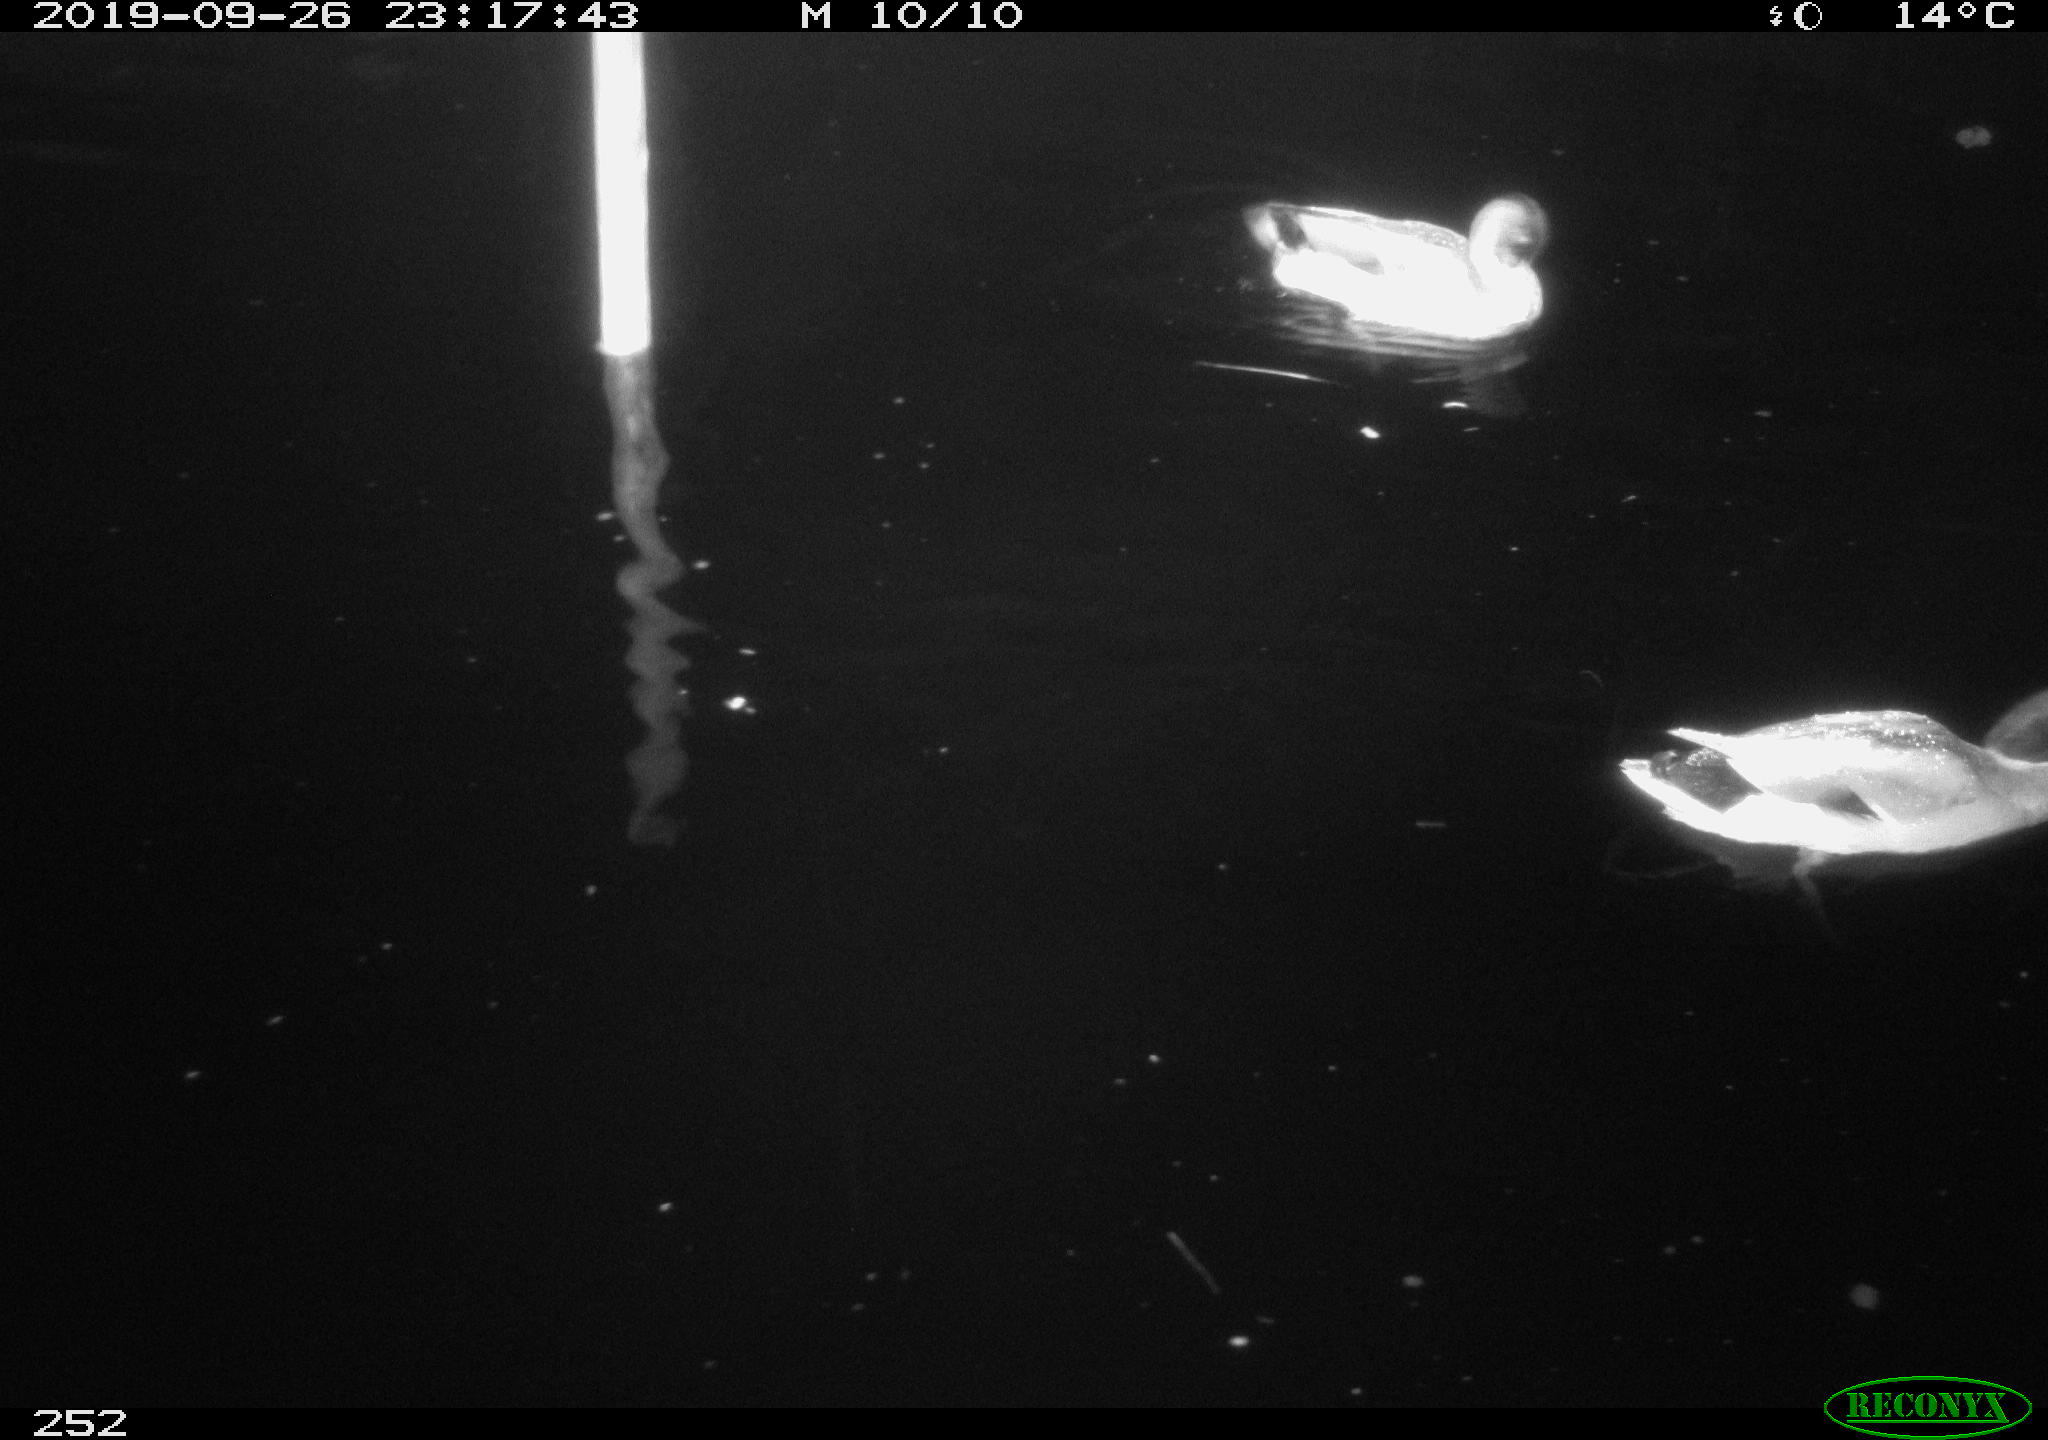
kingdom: Animalia
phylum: Chordata
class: Aves
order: Anseriformes
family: Anatidae
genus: Anas
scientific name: Anas platyrhynchos
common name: Mallard
